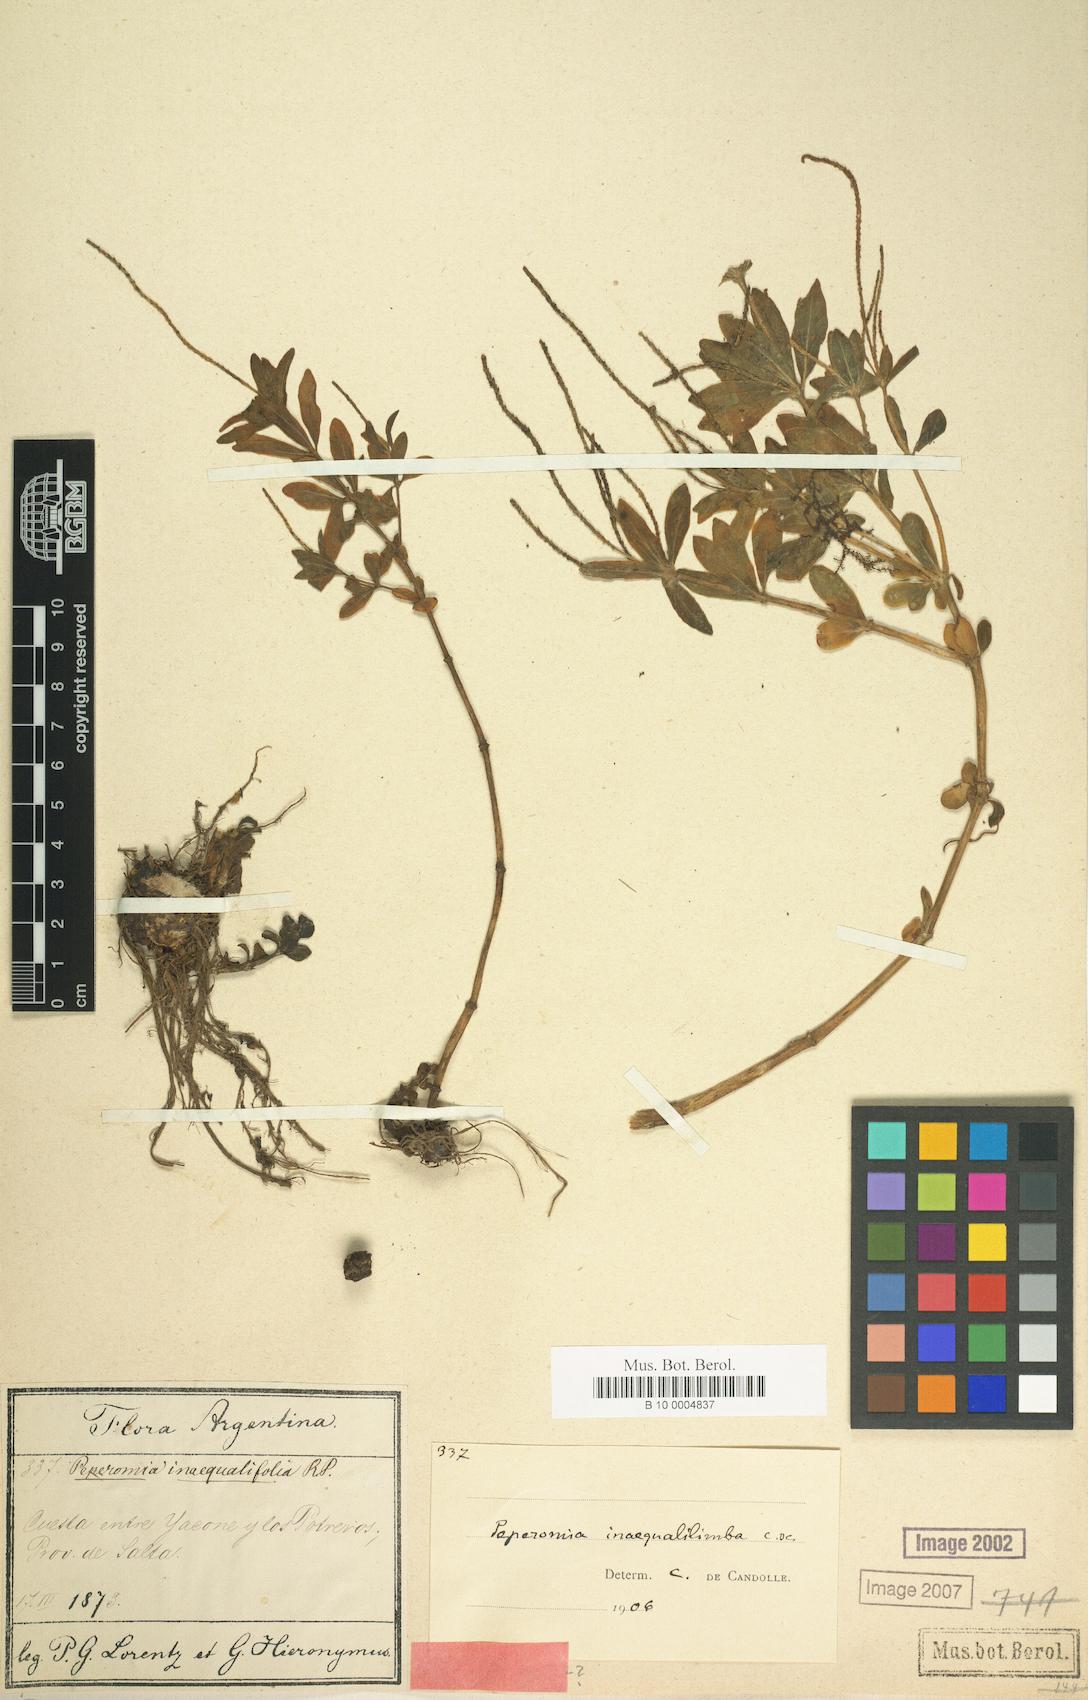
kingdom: Plantae
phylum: Tracheophyta
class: Magnoliopsida
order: Piperales
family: Piperaceae
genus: Peperomia
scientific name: Peperomia inaequalilimba
